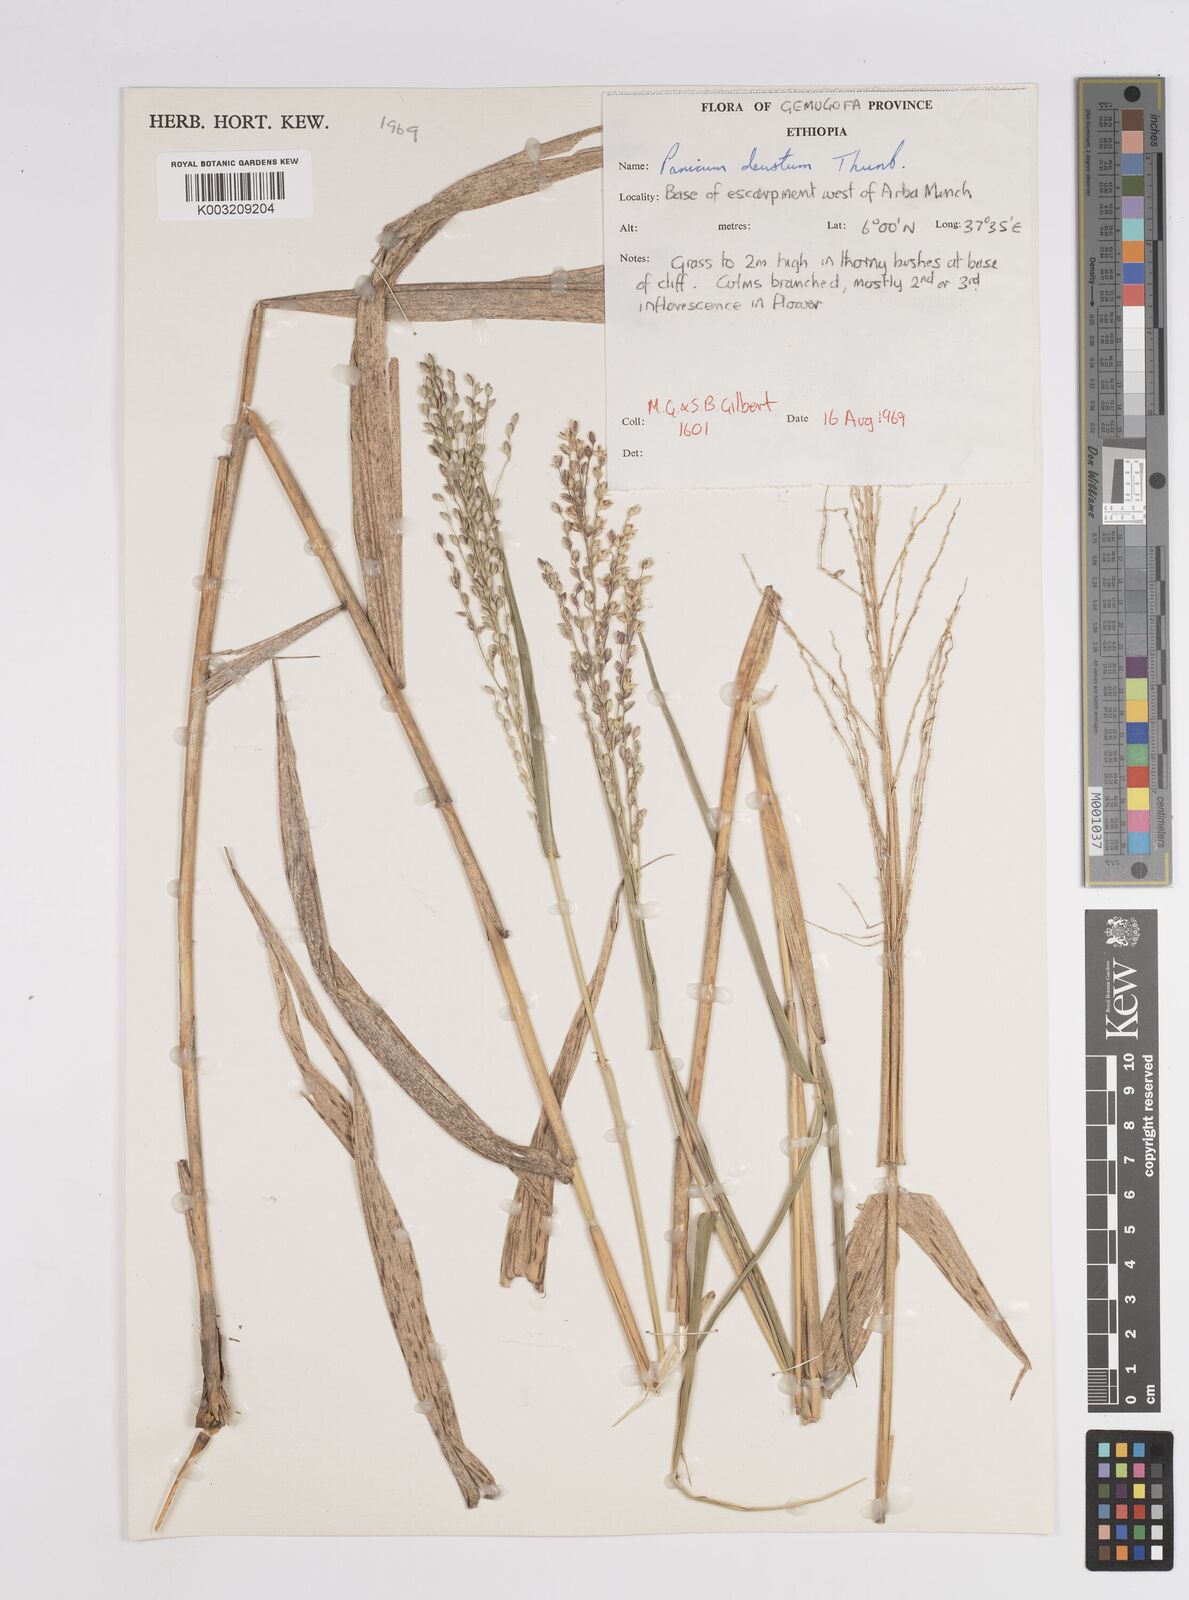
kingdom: Plantae
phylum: Tracheophyta
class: Liliopsida
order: Poales
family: Poaceae
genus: Panicum
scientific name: Panicum
